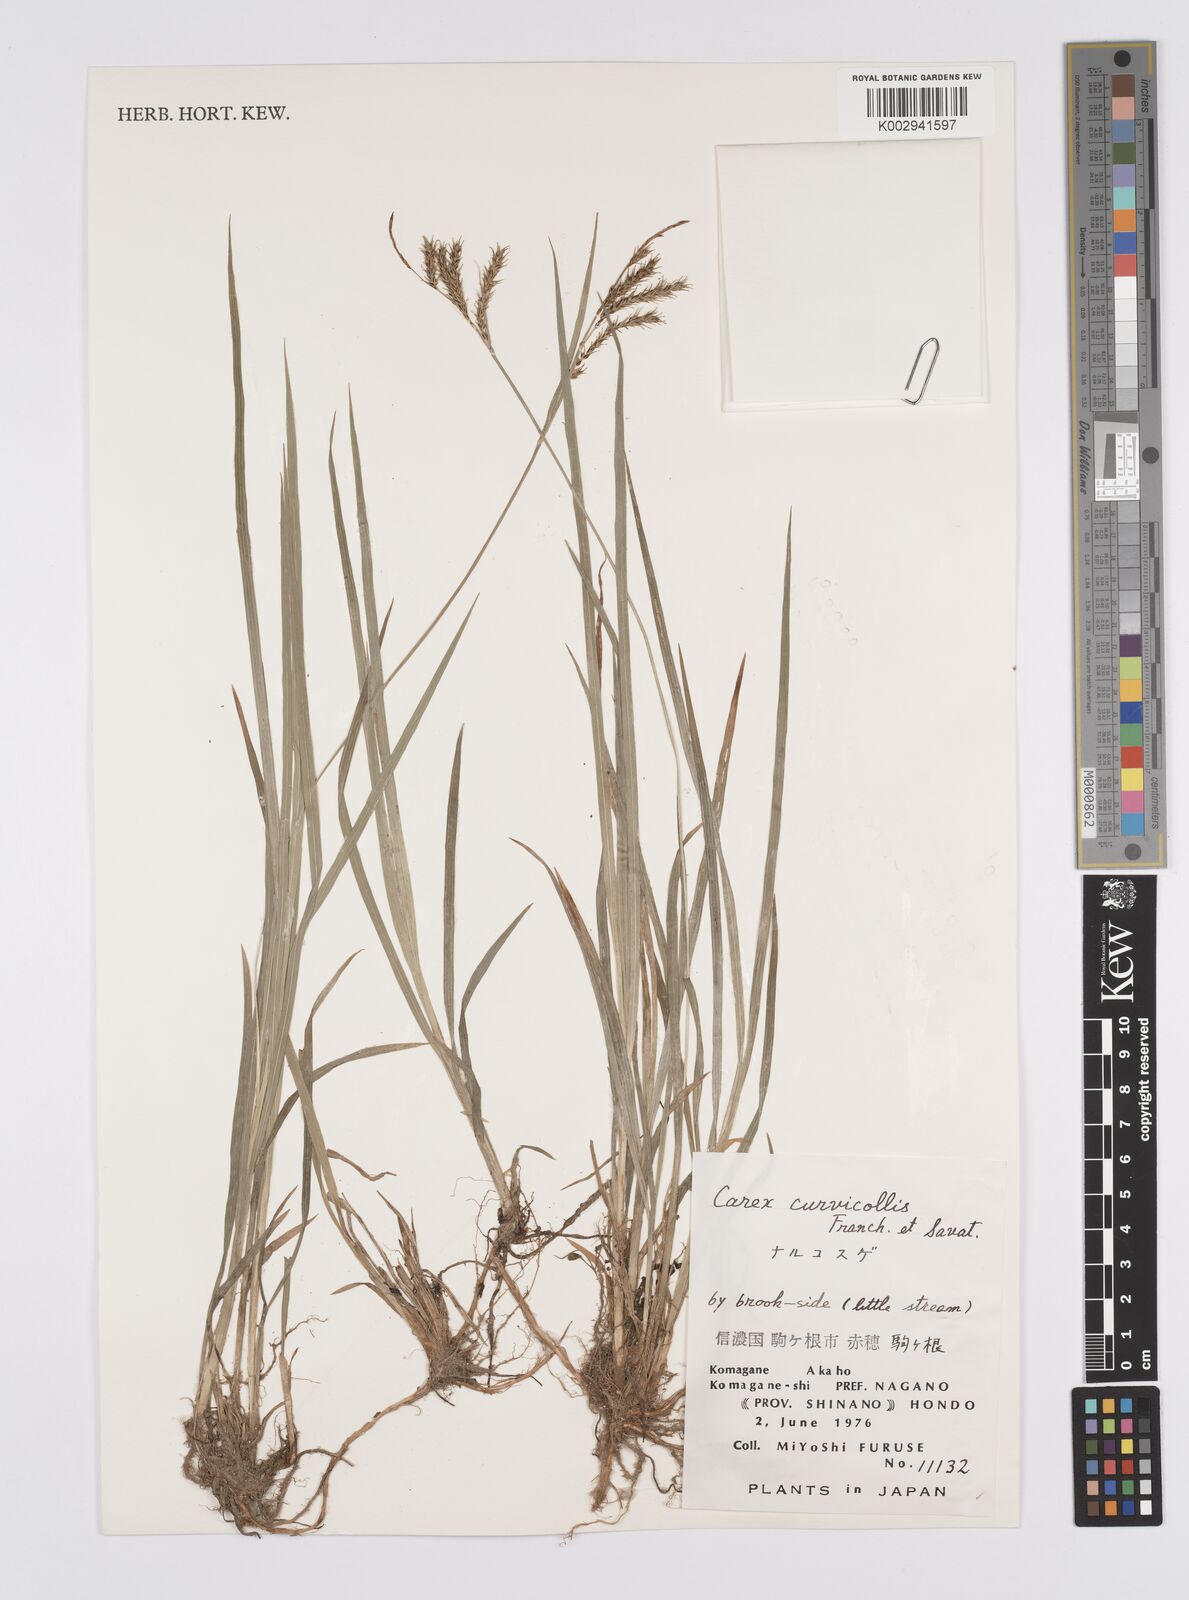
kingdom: Plantae
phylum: Tracheophyta
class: Liliopsida
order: Poales
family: Cyperaceae
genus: Carex
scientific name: Carex curvicollis
